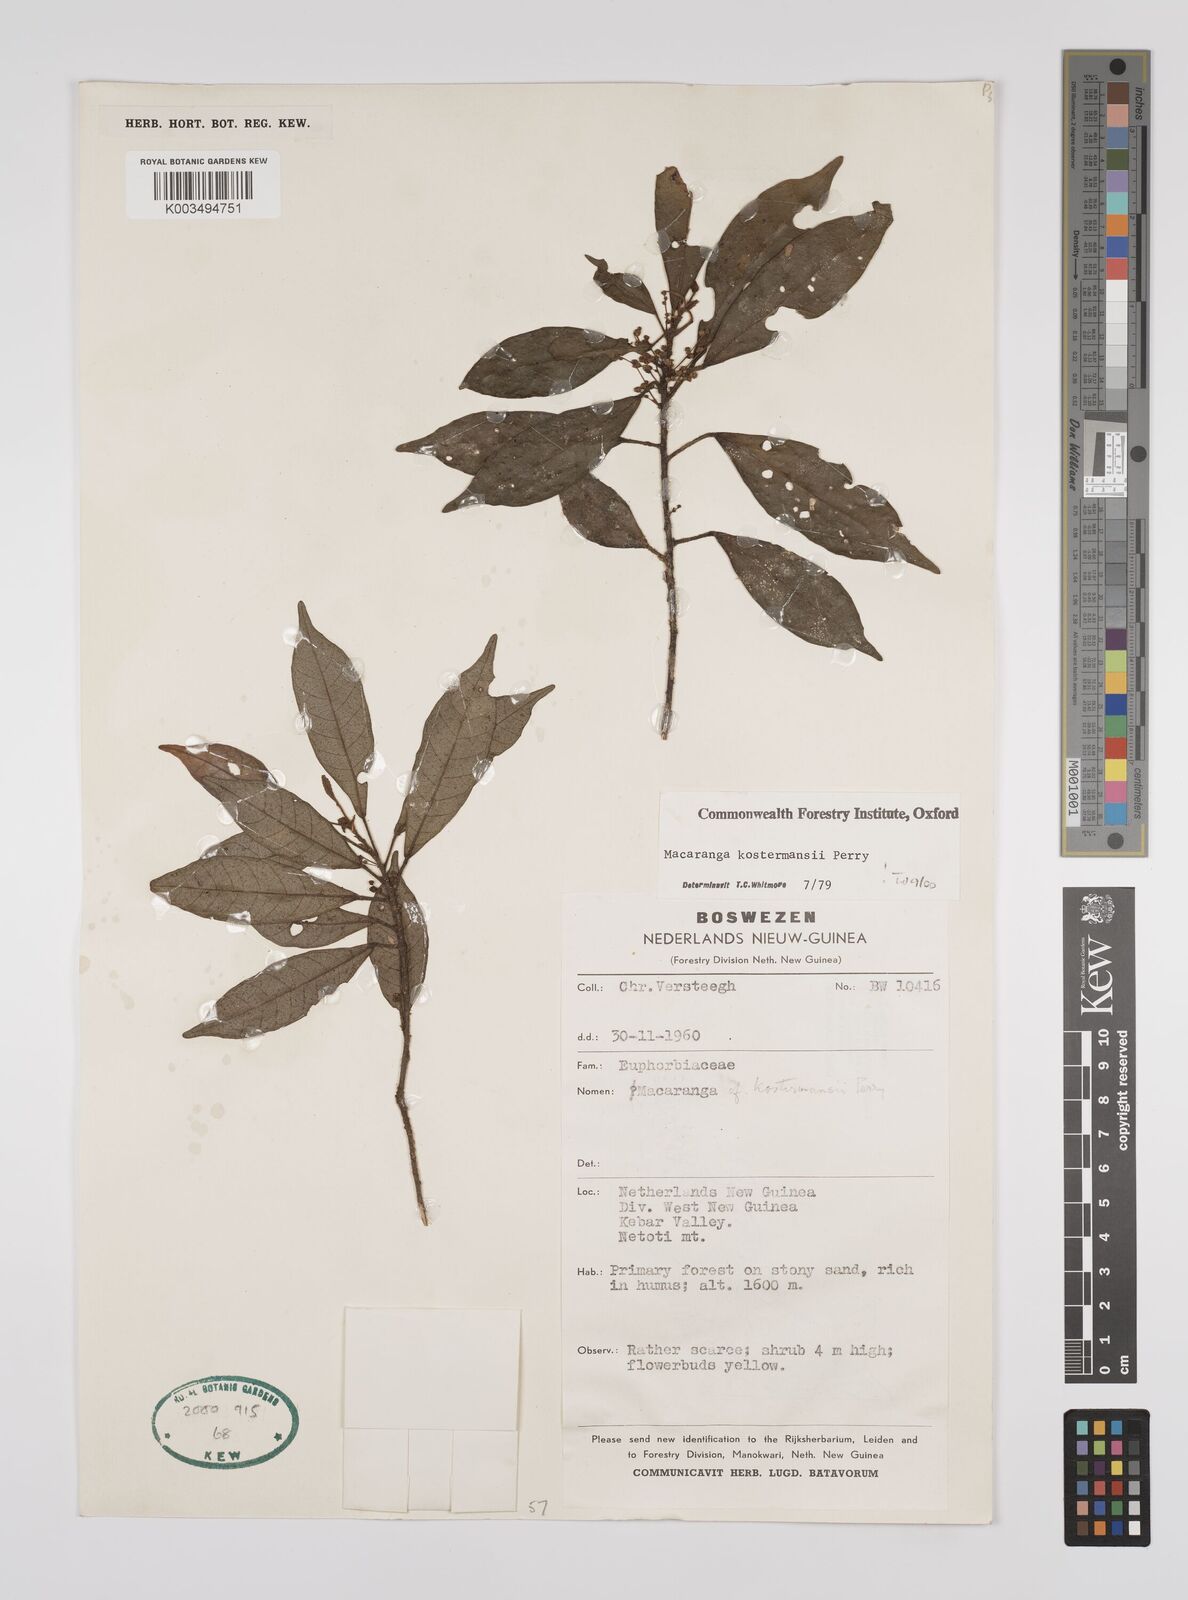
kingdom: Plantae
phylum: Tracheophyta
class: Magnoliopsida
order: Malpighiales
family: Euphorbiaceae
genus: Macaranga
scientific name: Macaranga kostermansii
